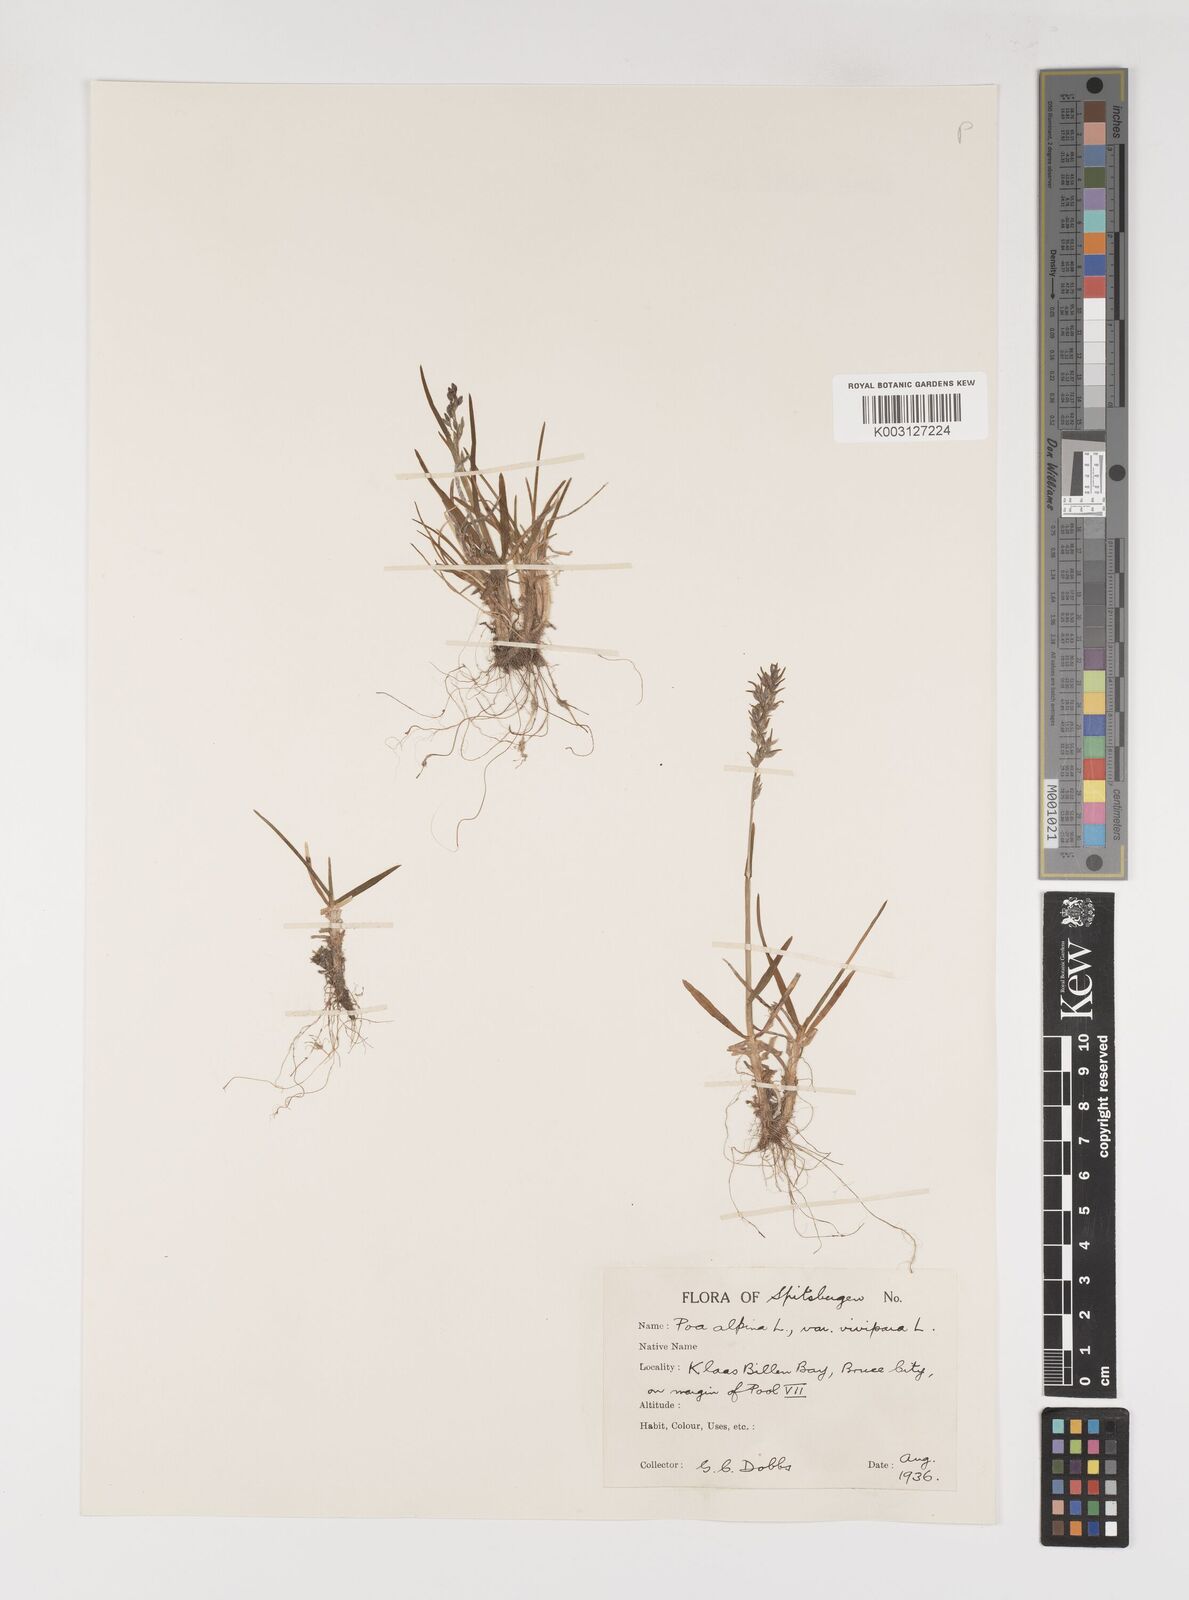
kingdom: Plantae
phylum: Tracheophyta
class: Liliopsida
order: Poales
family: Poaceae
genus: Poa
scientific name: Poa alpina
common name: Alpine bluegrass
